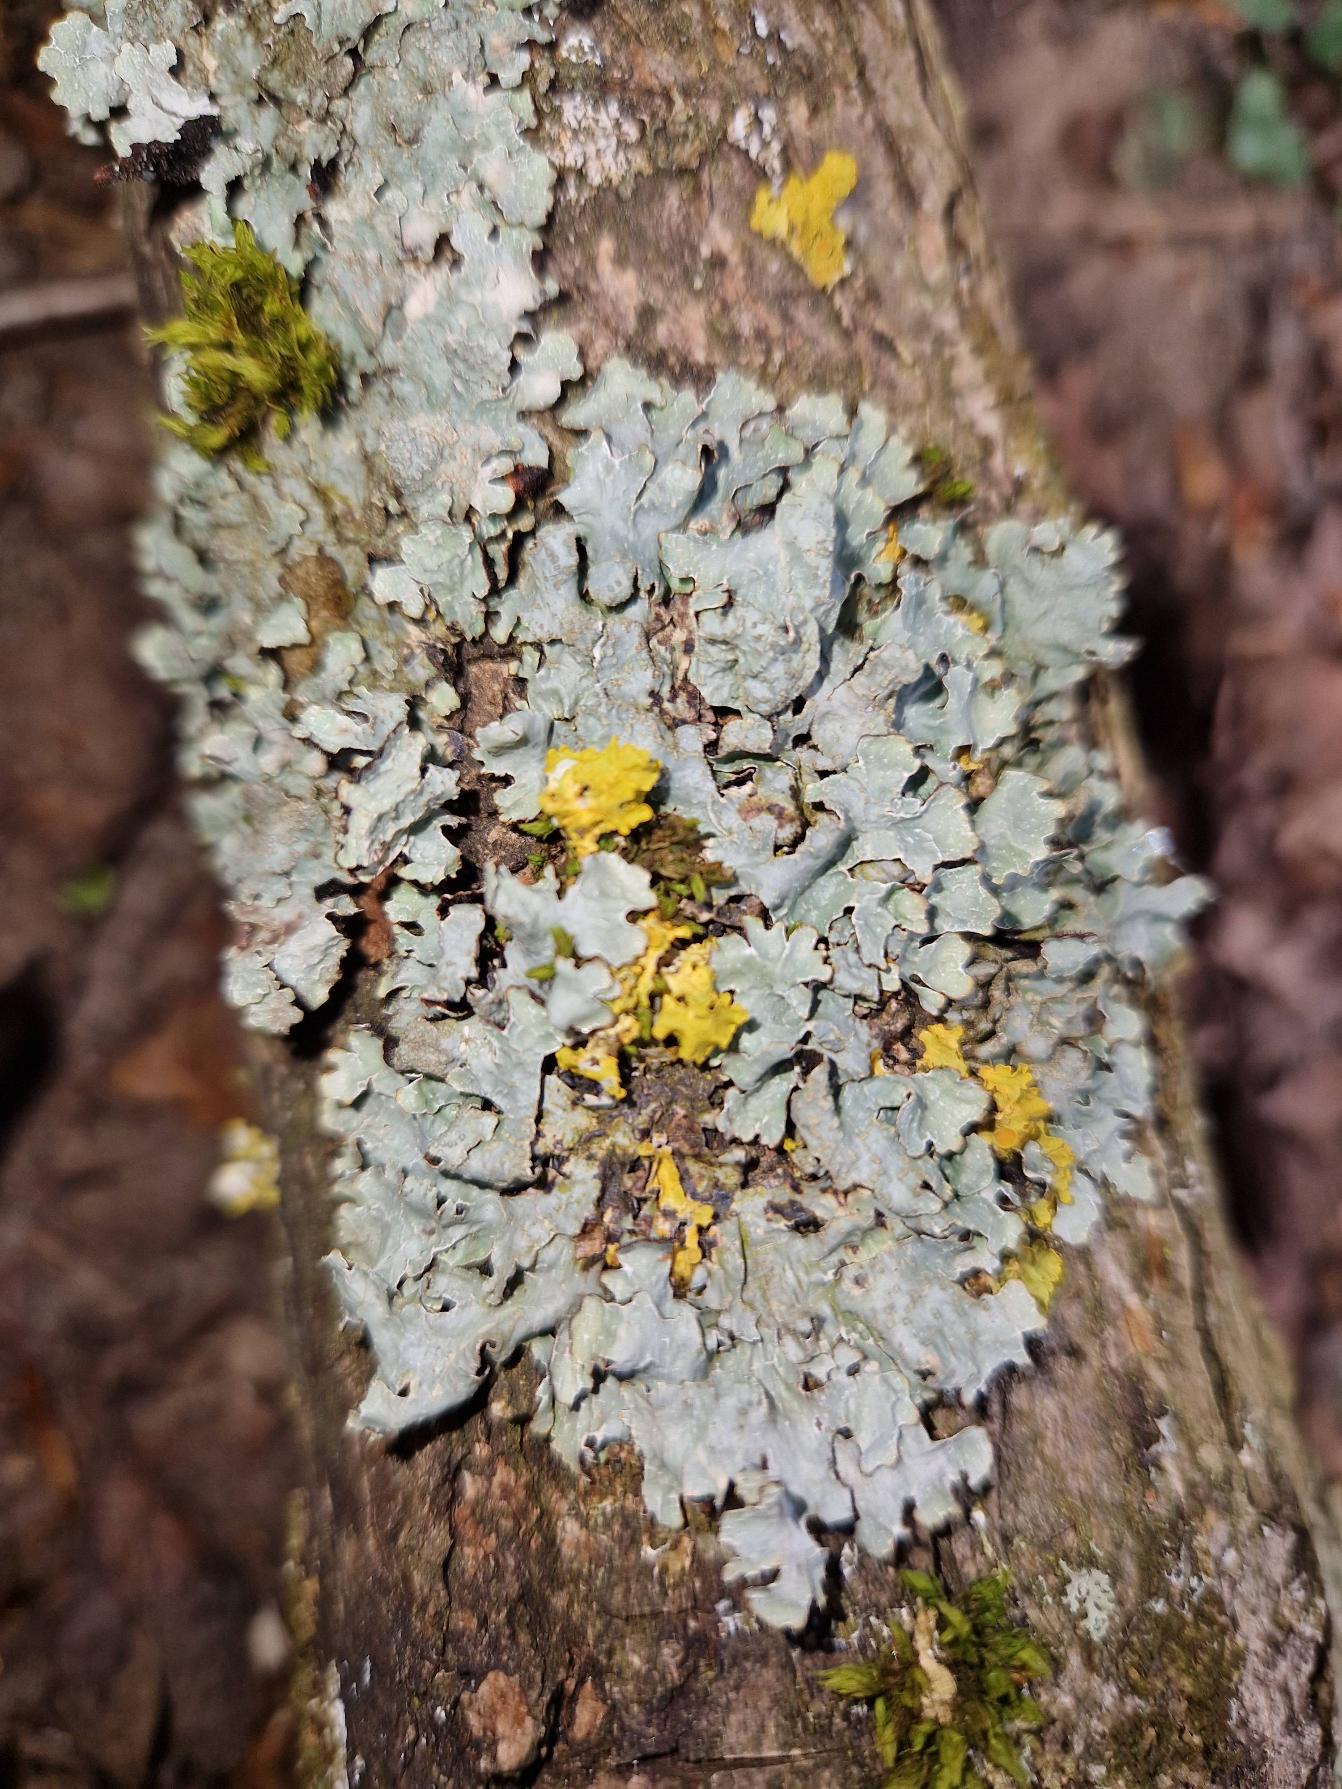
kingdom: Fungi
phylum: Ascomycota
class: Lecanoromycetes
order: Lecanorales
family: Parmeliaceae
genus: Parmelia
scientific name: Parmelia sulcata
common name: Rynket skållav
